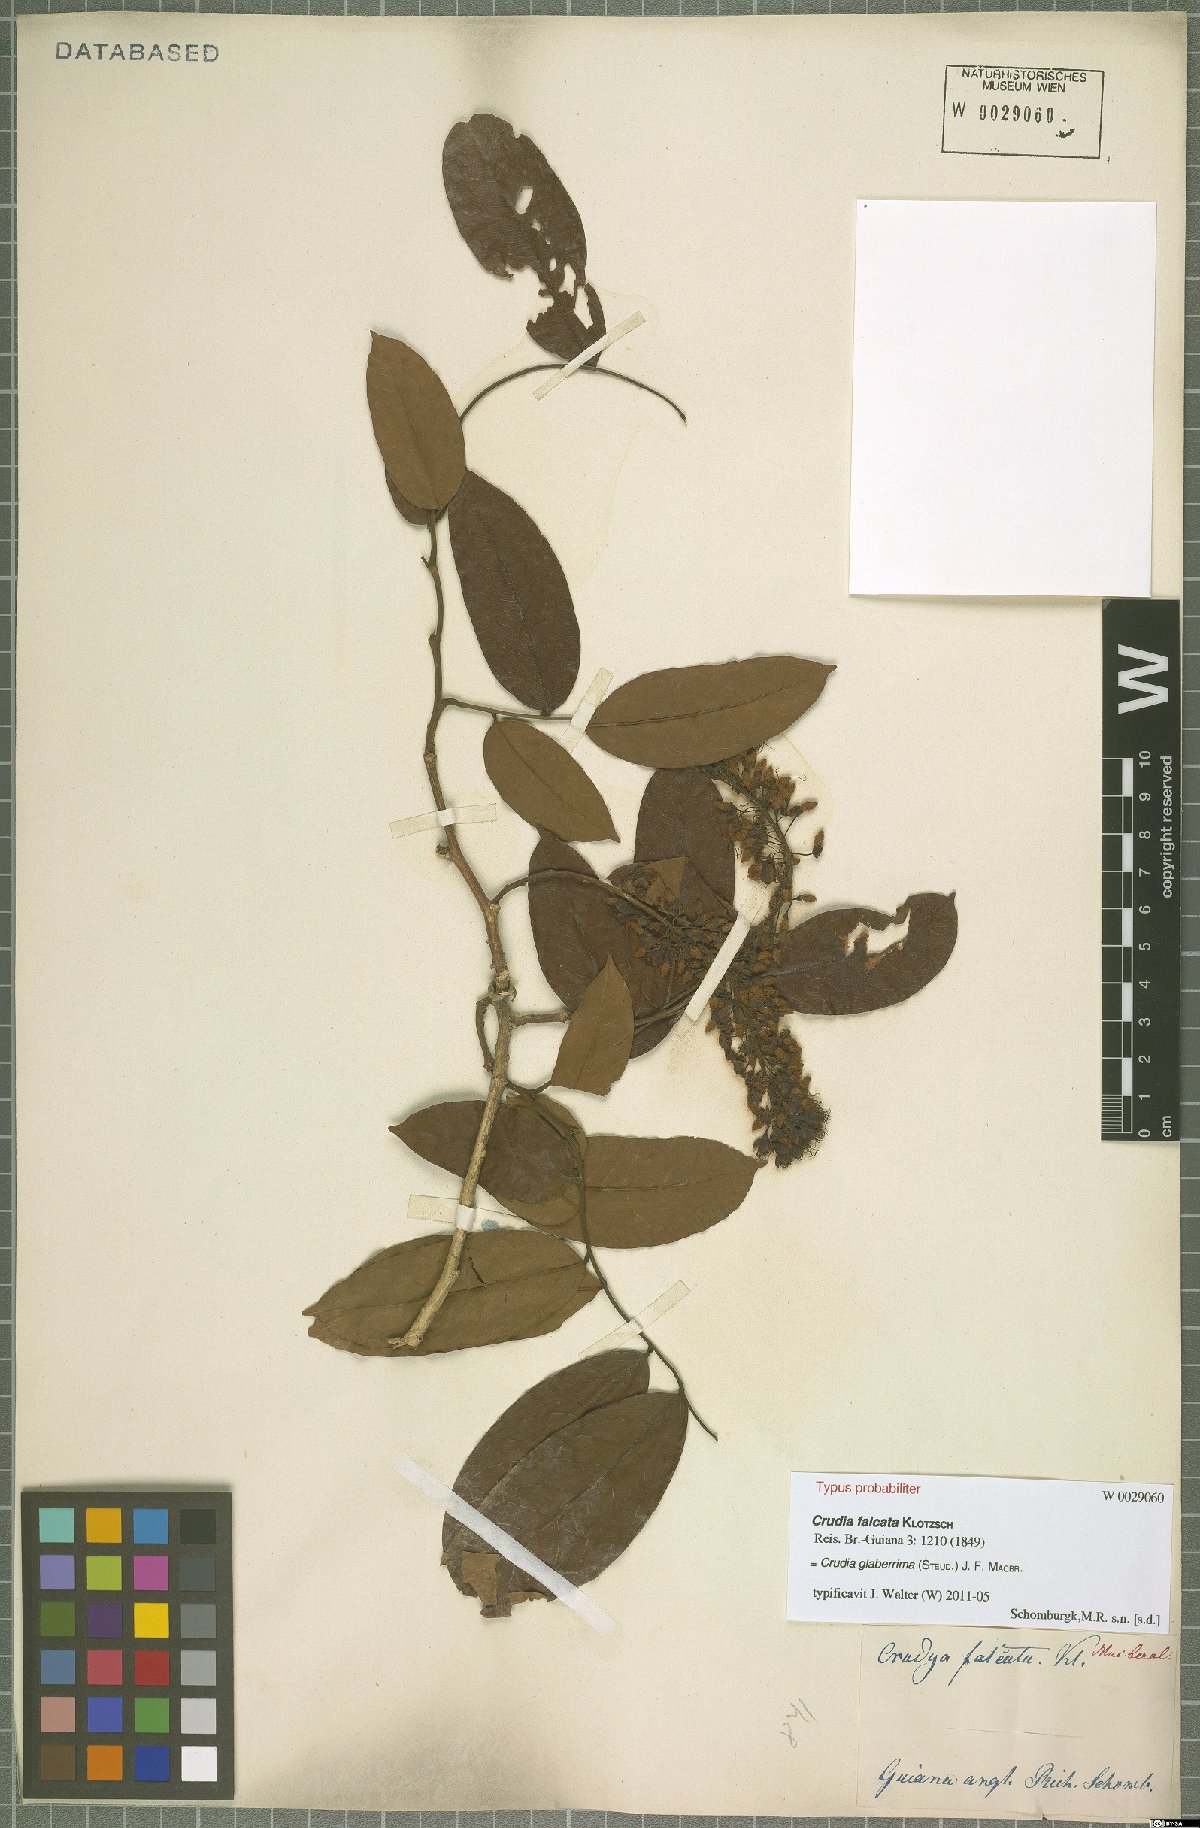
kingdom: Plantae
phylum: Tracheophyta
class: Magnoliopsida
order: Fabales
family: Fabaceae
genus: Crudia
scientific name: Crudia glaberrima
